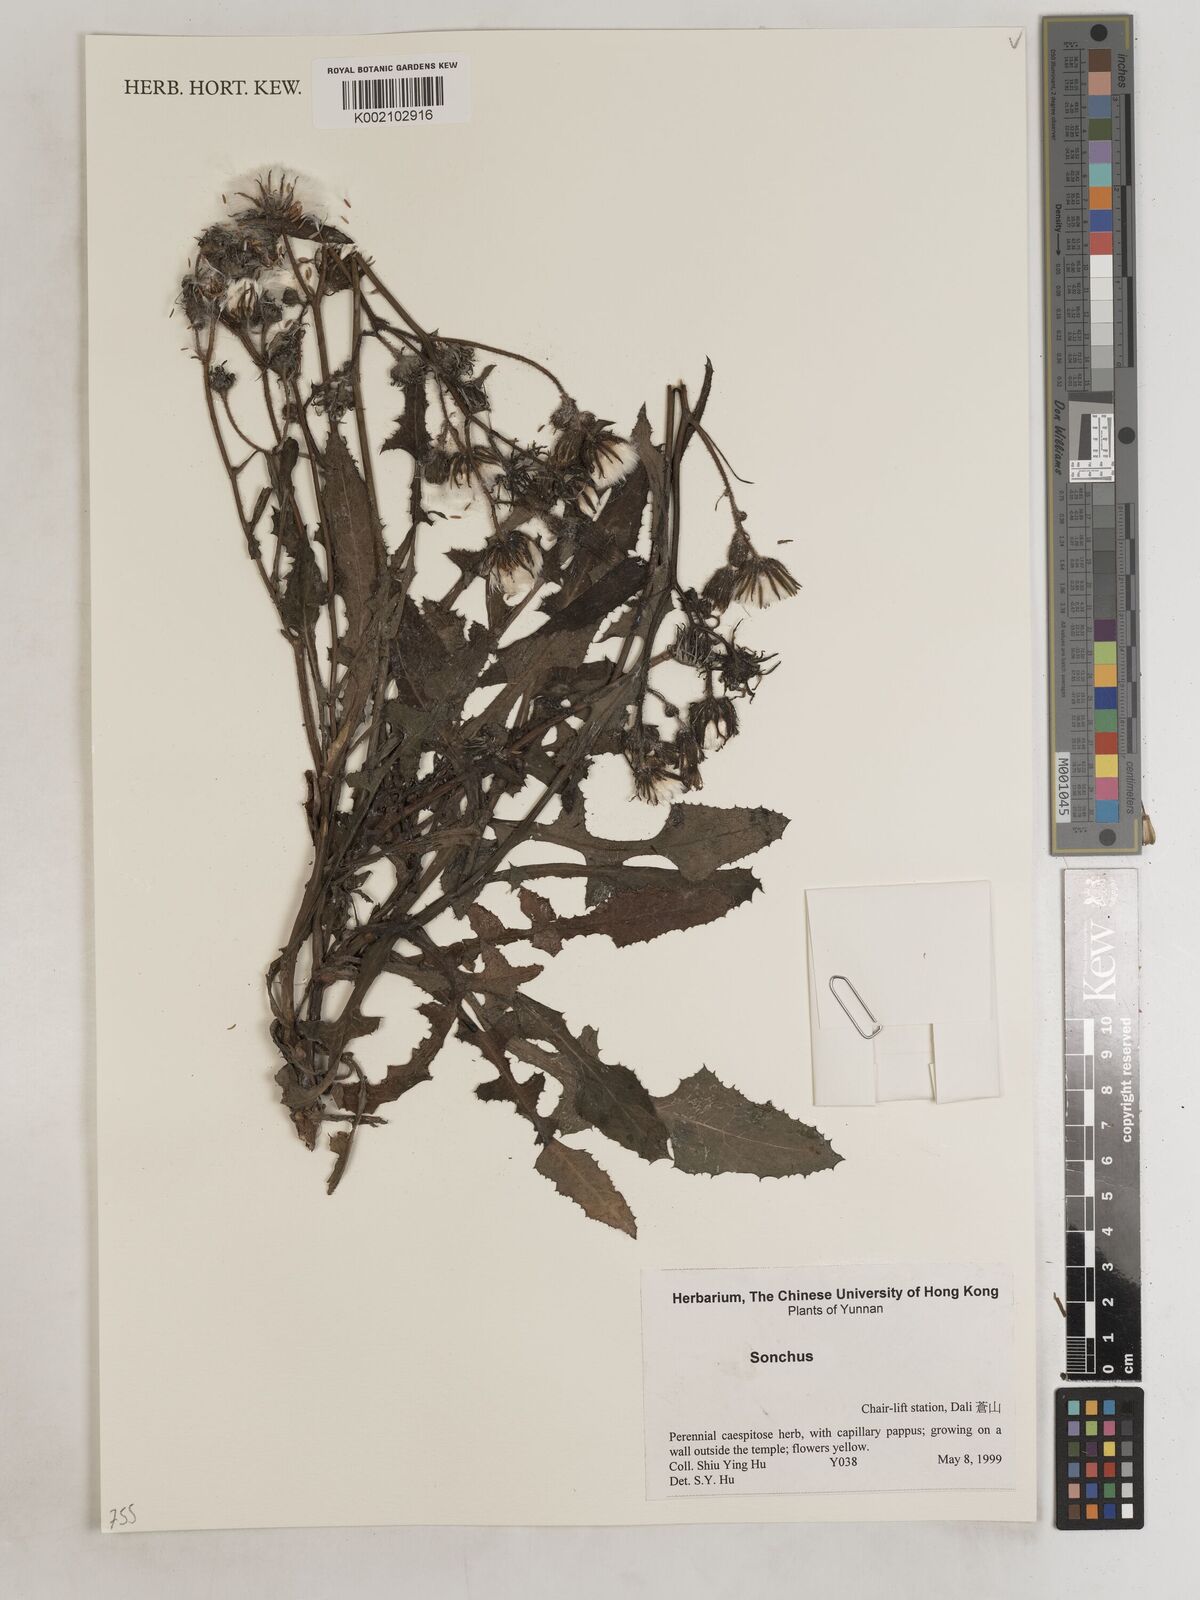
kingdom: Plantae
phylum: Tracheophyta
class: Magnoliopsida
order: Asterales
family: Asteraceae
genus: Sonchus
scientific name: Sonchus
